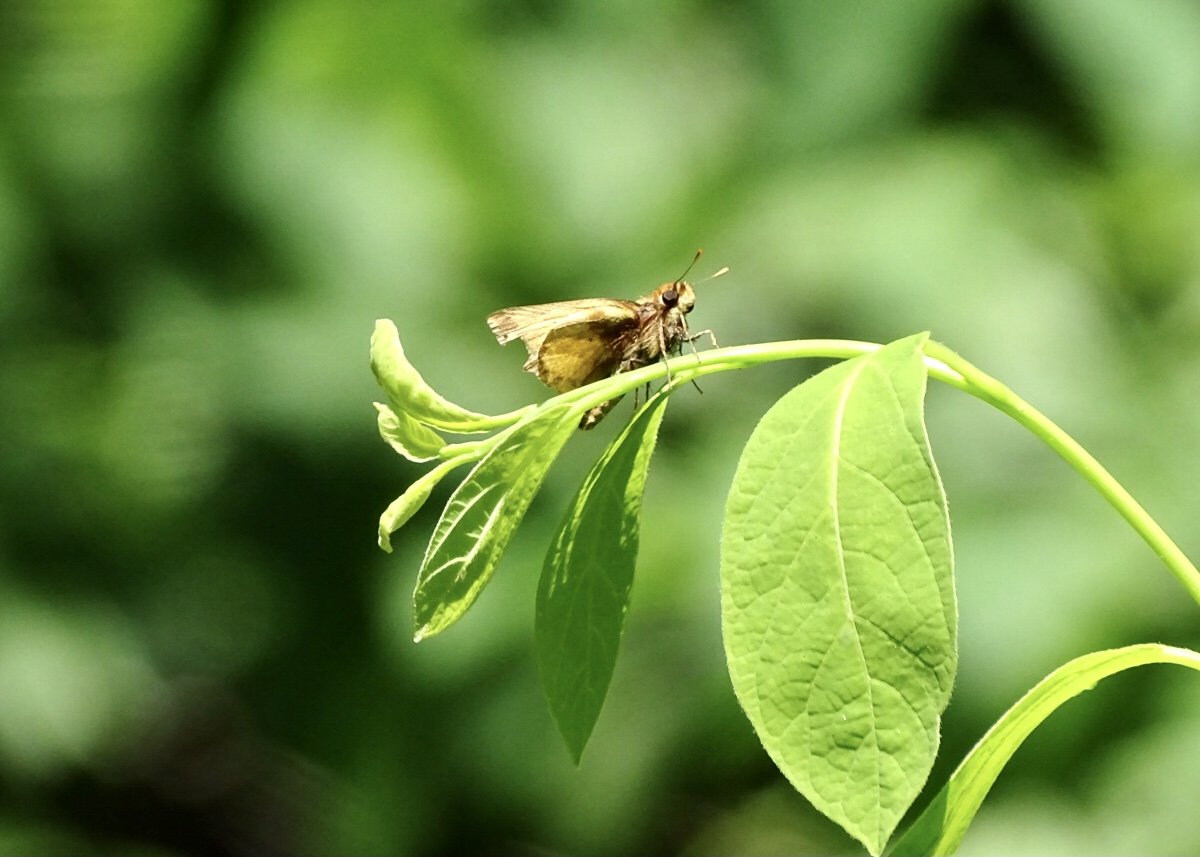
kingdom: Animalia
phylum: Arthropoda
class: Insecta
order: Lepidoptera
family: Hesperiidae
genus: Lon
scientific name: Lon zabulon
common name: Zabulon Skipper
